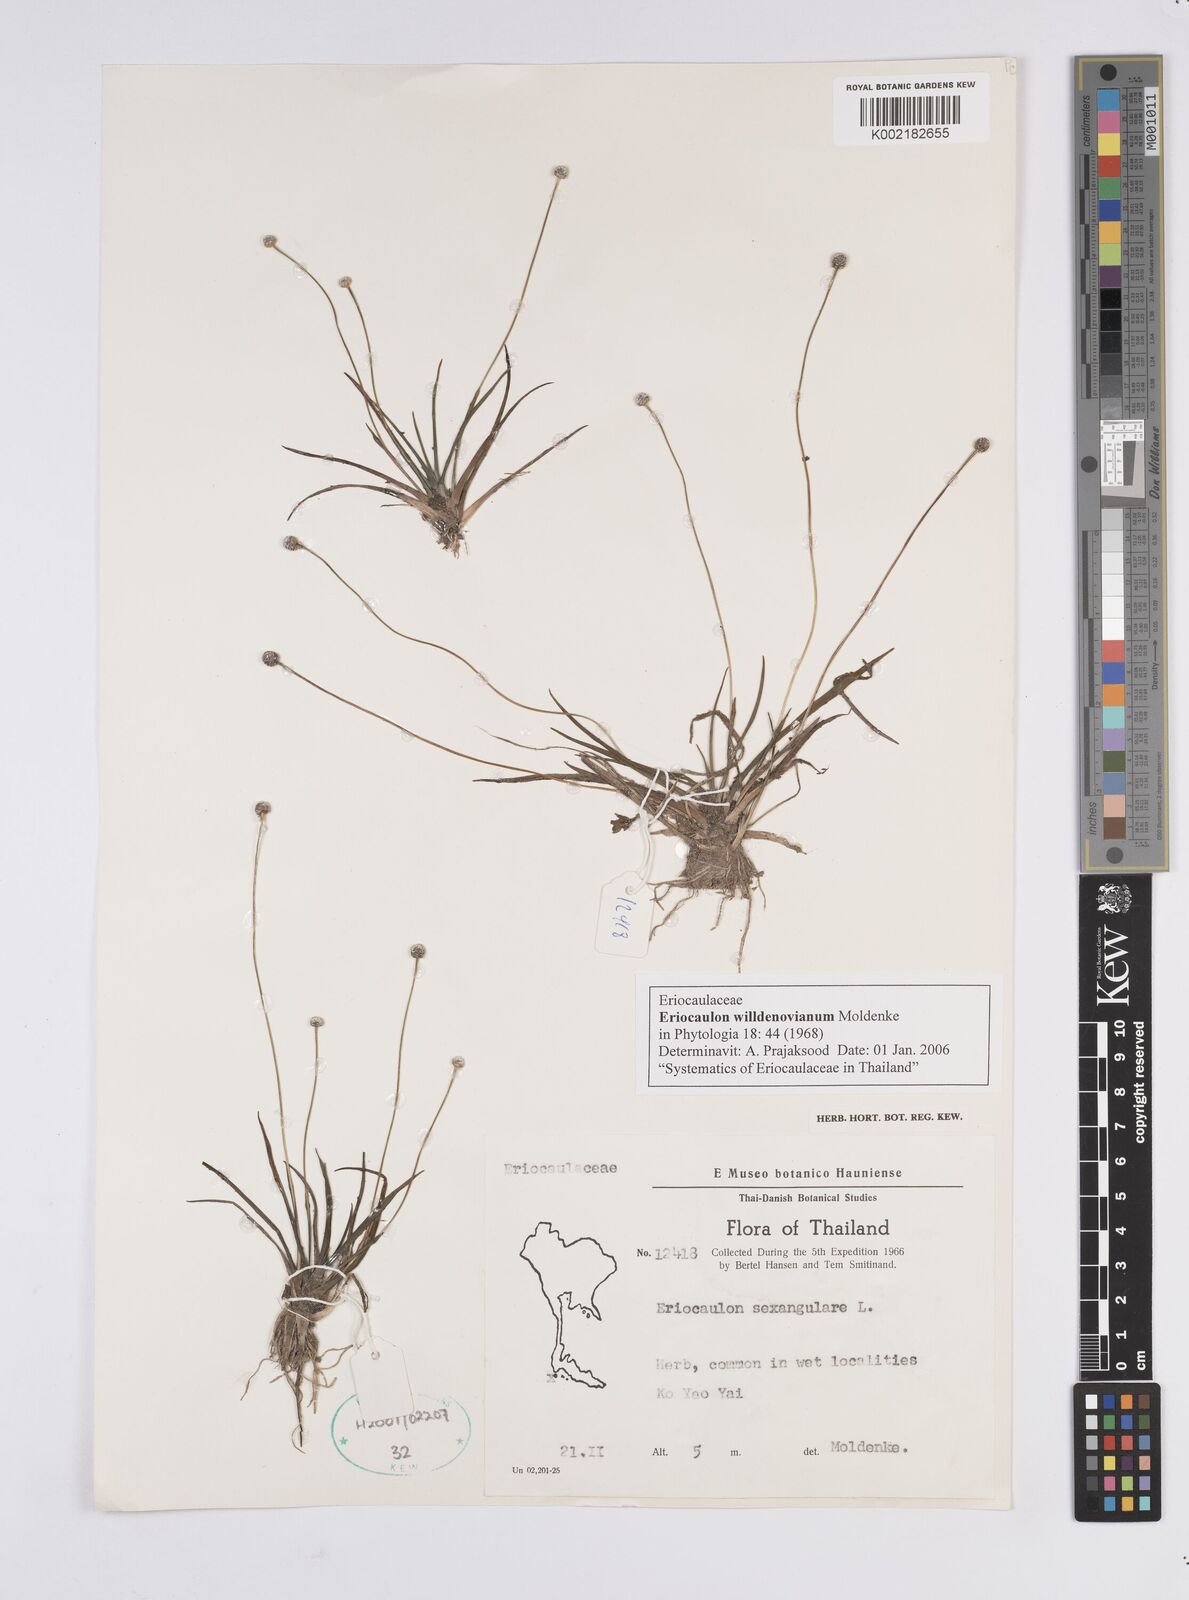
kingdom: Plantae
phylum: Tracheophyta
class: Liliopsida
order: Poales
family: Eriocaulaceae
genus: Eriocaulon
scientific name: Eriocaulon willdenovianum
